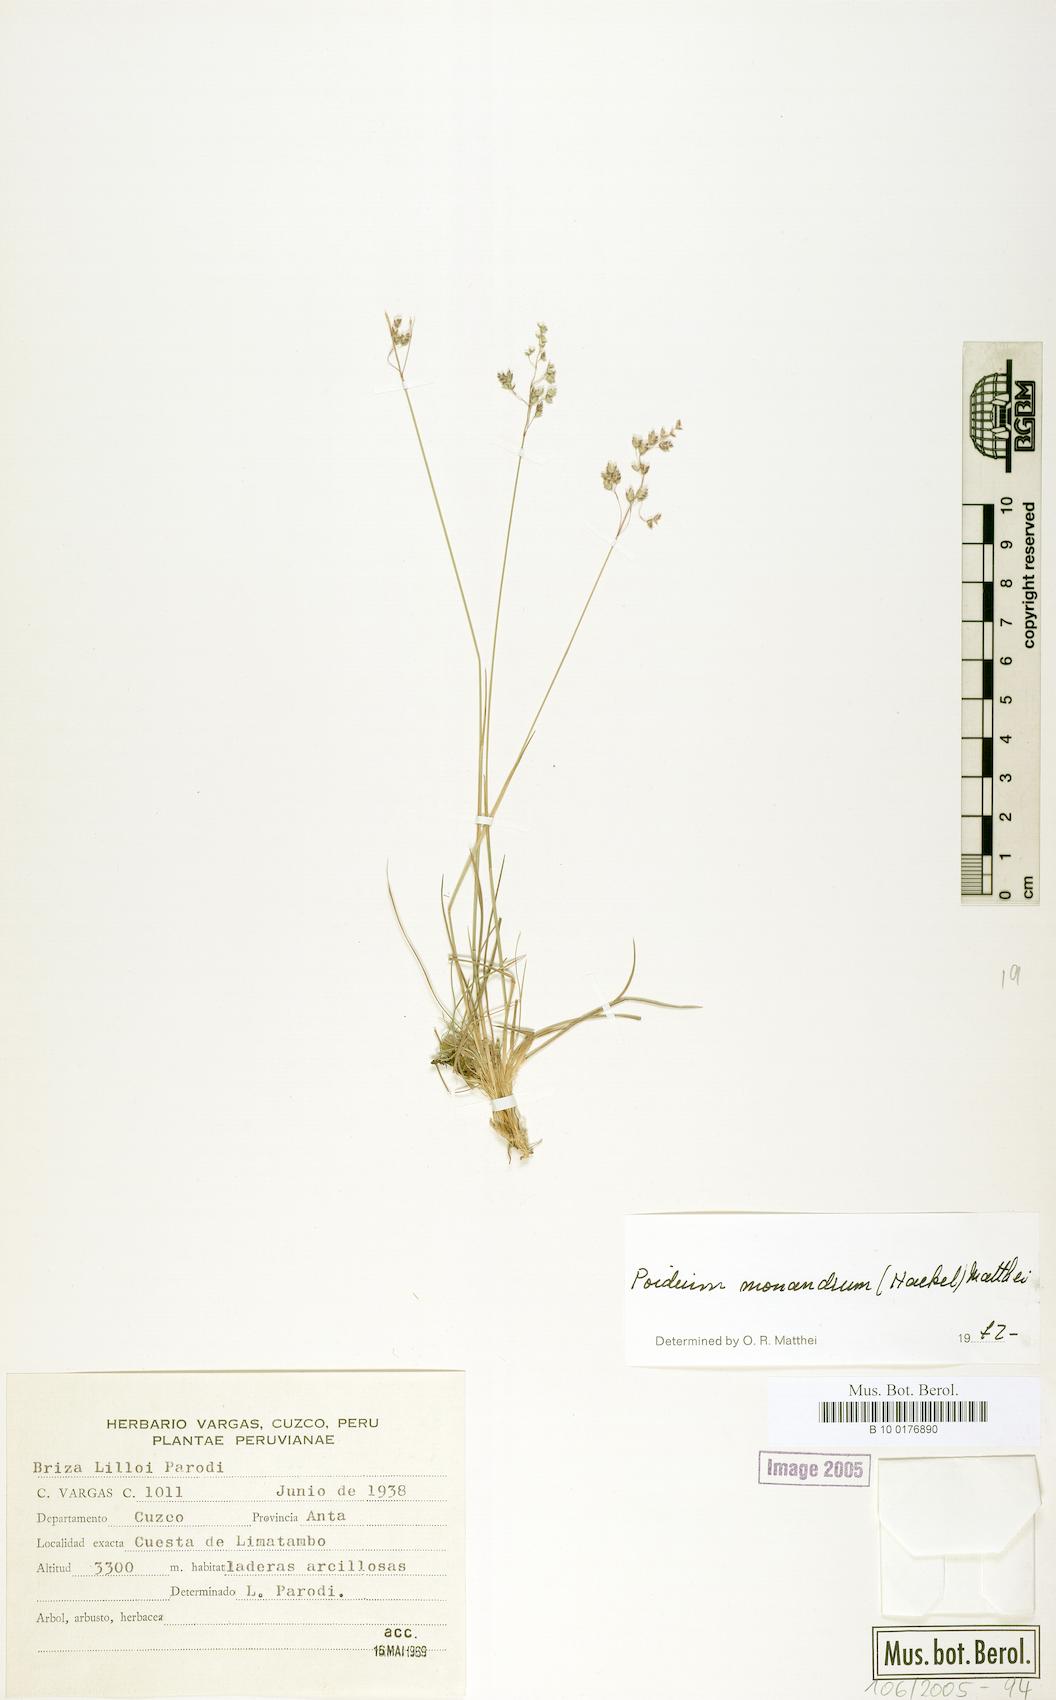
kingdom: Plantae
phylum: Tracheophyta
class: Liliopsida
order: Poales
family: Poaceae
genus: Poidium
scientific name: Poidium monandrum
